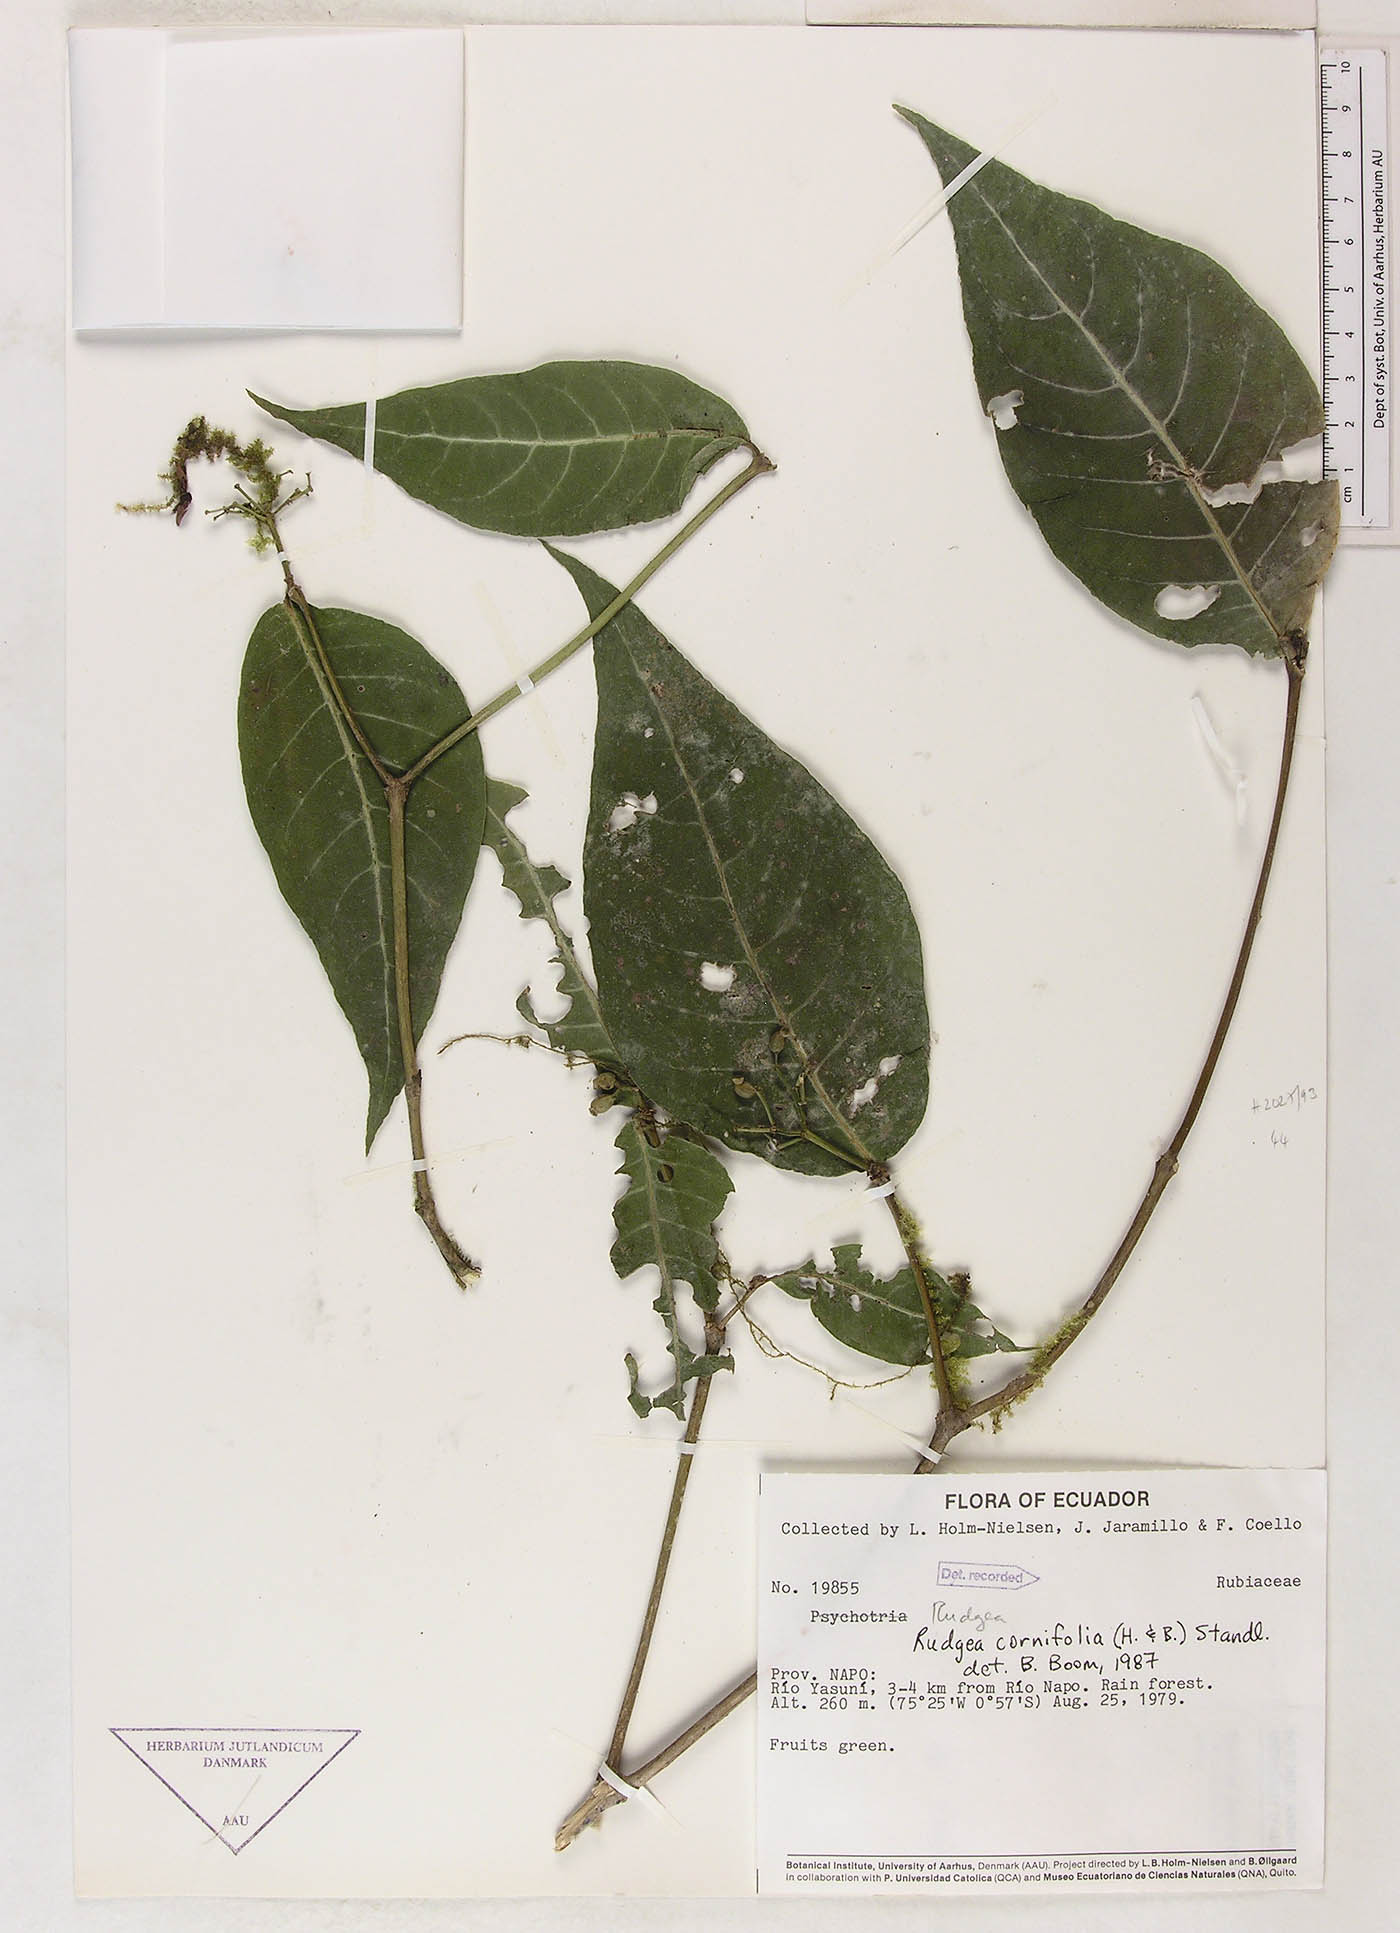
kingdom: Plantae
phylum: Tracheophyta
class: Magnoliopsida
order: Gentianales
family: Rubiaceae
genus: Rudgea
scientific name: Rudgea cornifolia
